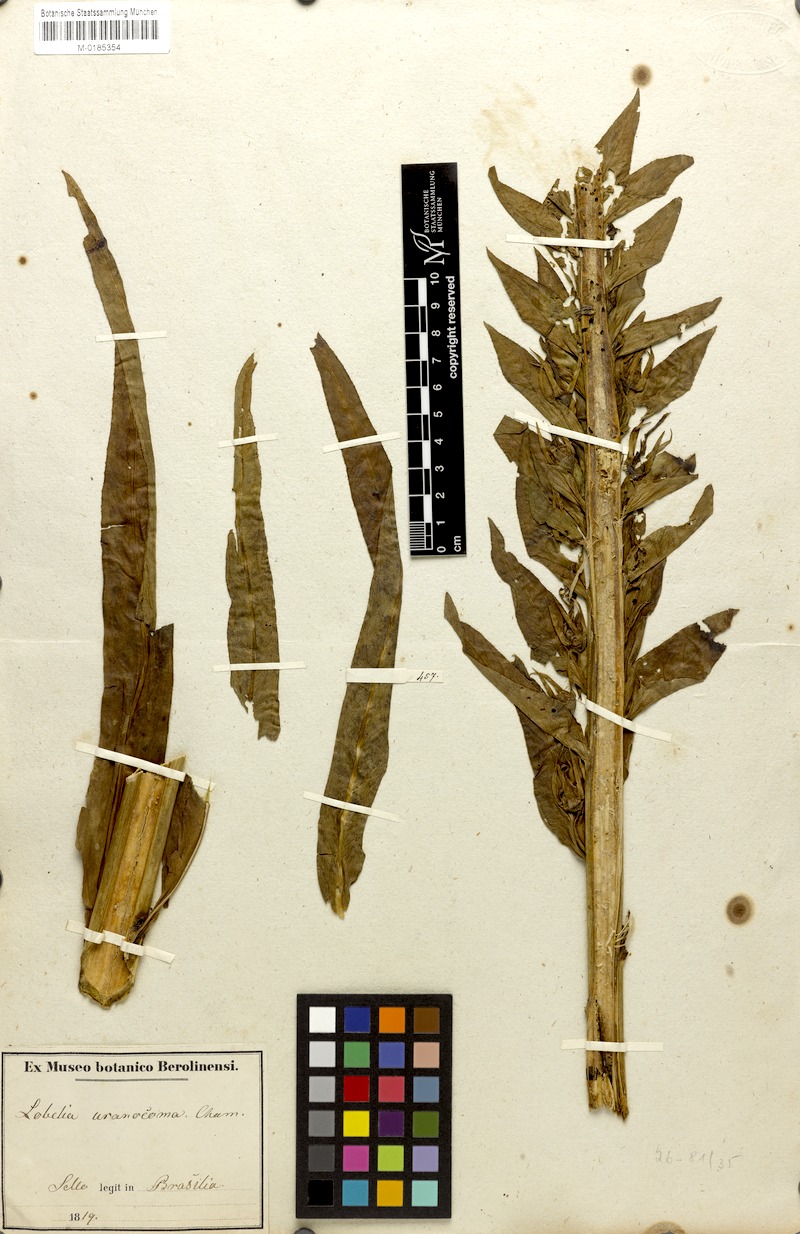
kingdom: Plantae
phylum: Tracheophyta
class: Magnoliopsida
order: Asterales
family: Campanulaceae
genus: Lobelia
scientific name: Lobelia fistulosa
